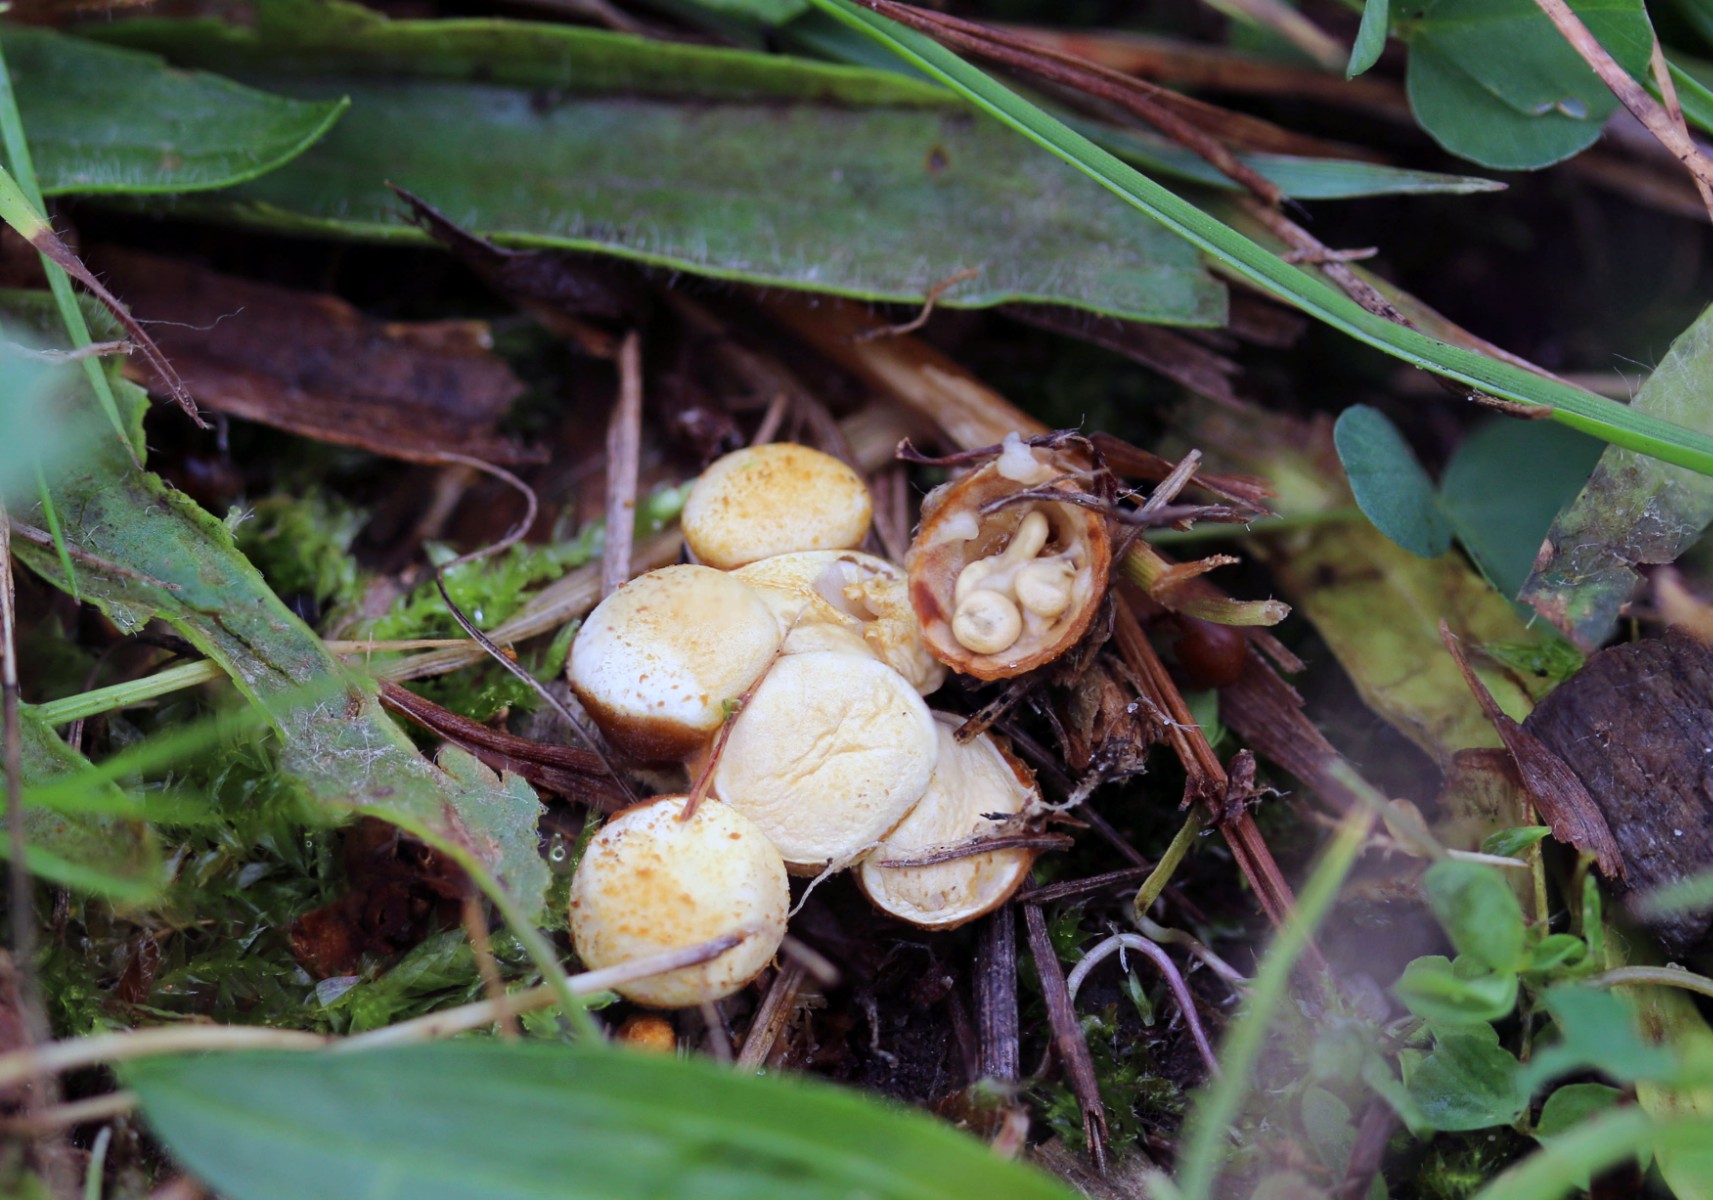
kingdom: Fungi
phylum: Basidiomycota
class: Agaricomycetes
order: Agaricales
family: Nidulariaceae
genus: Crucibulum
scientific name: Crucibulum crucibuliforme
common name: krukkesvamp
